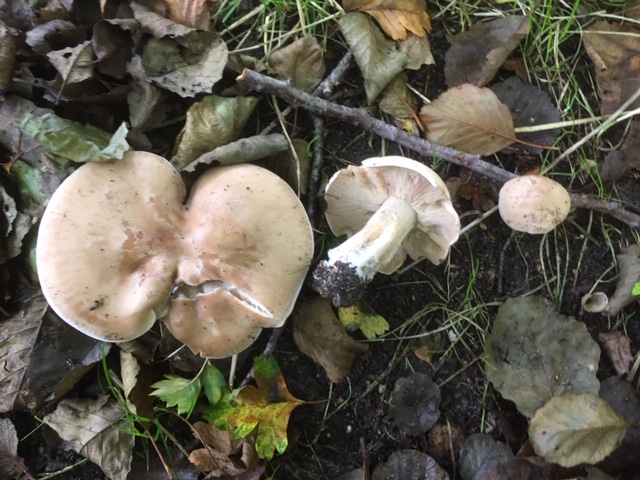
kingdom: Fungi
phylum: Basidiomycota
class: Agaricomycetes
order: Agaricales
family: Tricholomataceae
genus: Lepista
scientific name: Lepista irina
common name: violduftende hekseringshat
